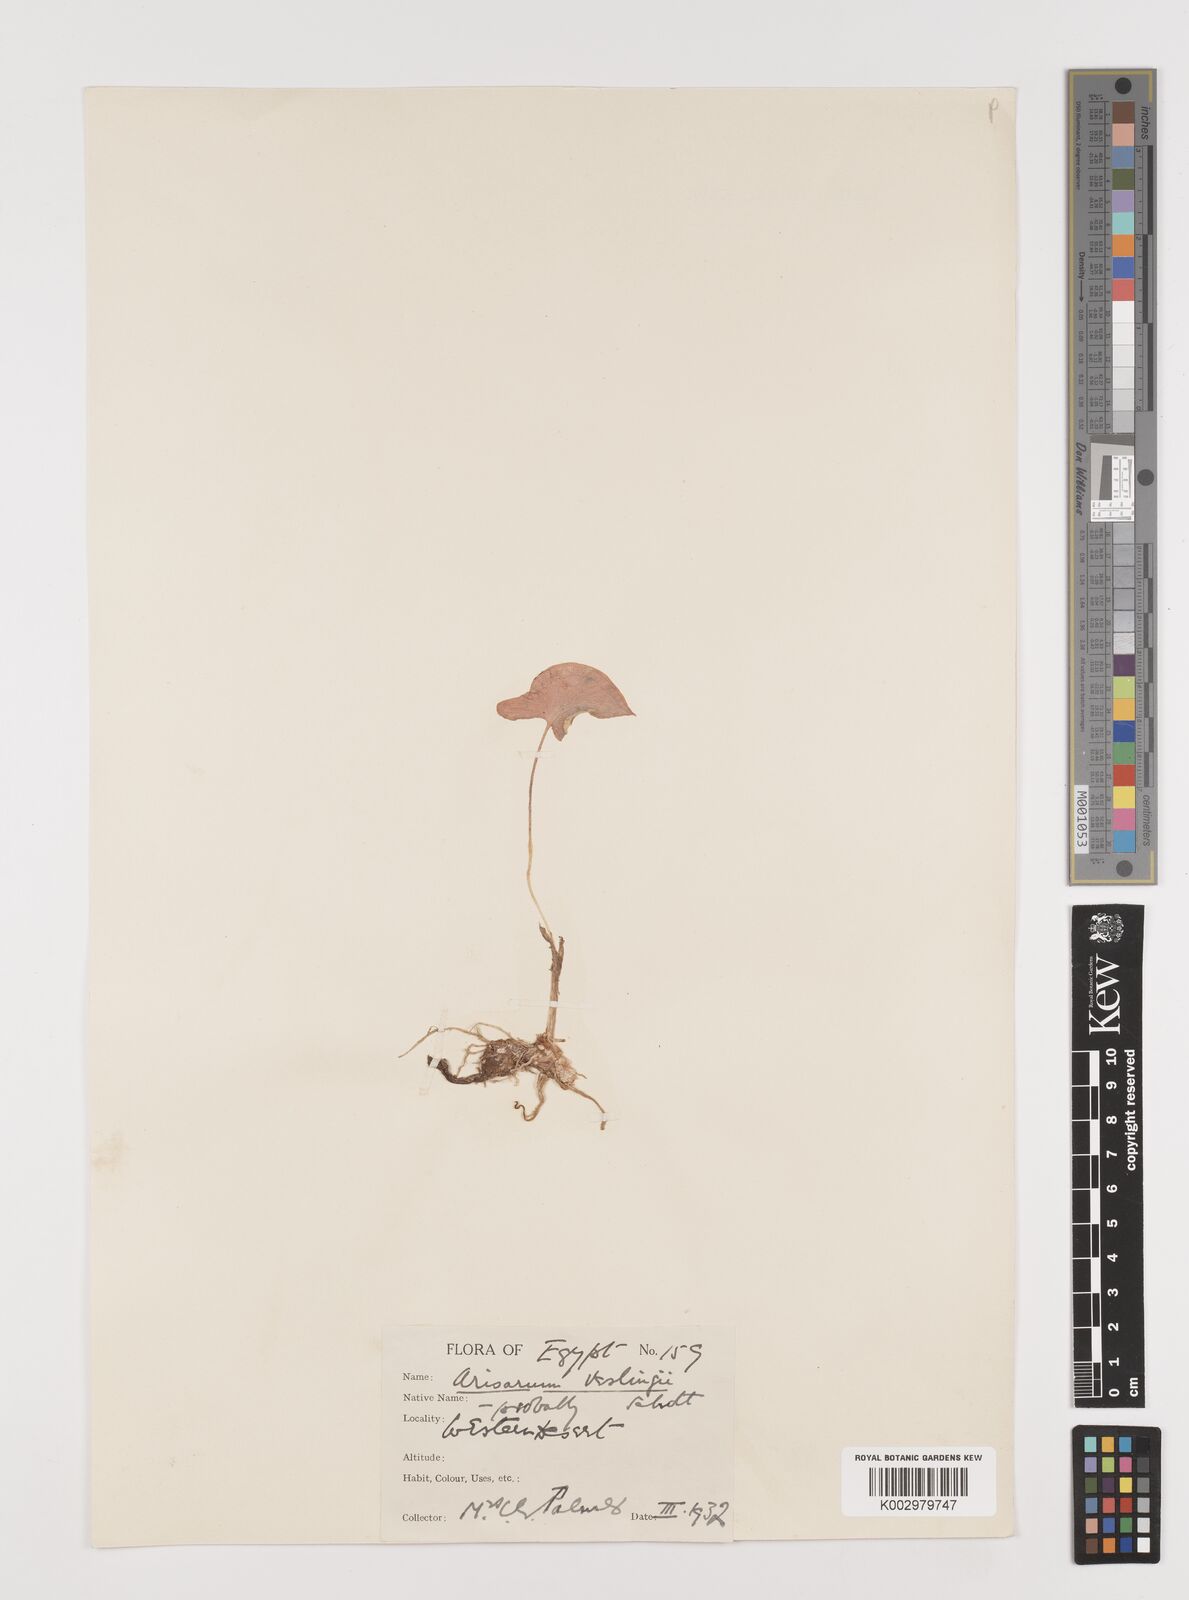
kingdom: Plantae
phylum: Tracheophyta
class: Liliopsida
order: Alismatales
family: Araceae
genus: Arisarum
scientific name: Arisarum vulgare
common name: Common arisarum
